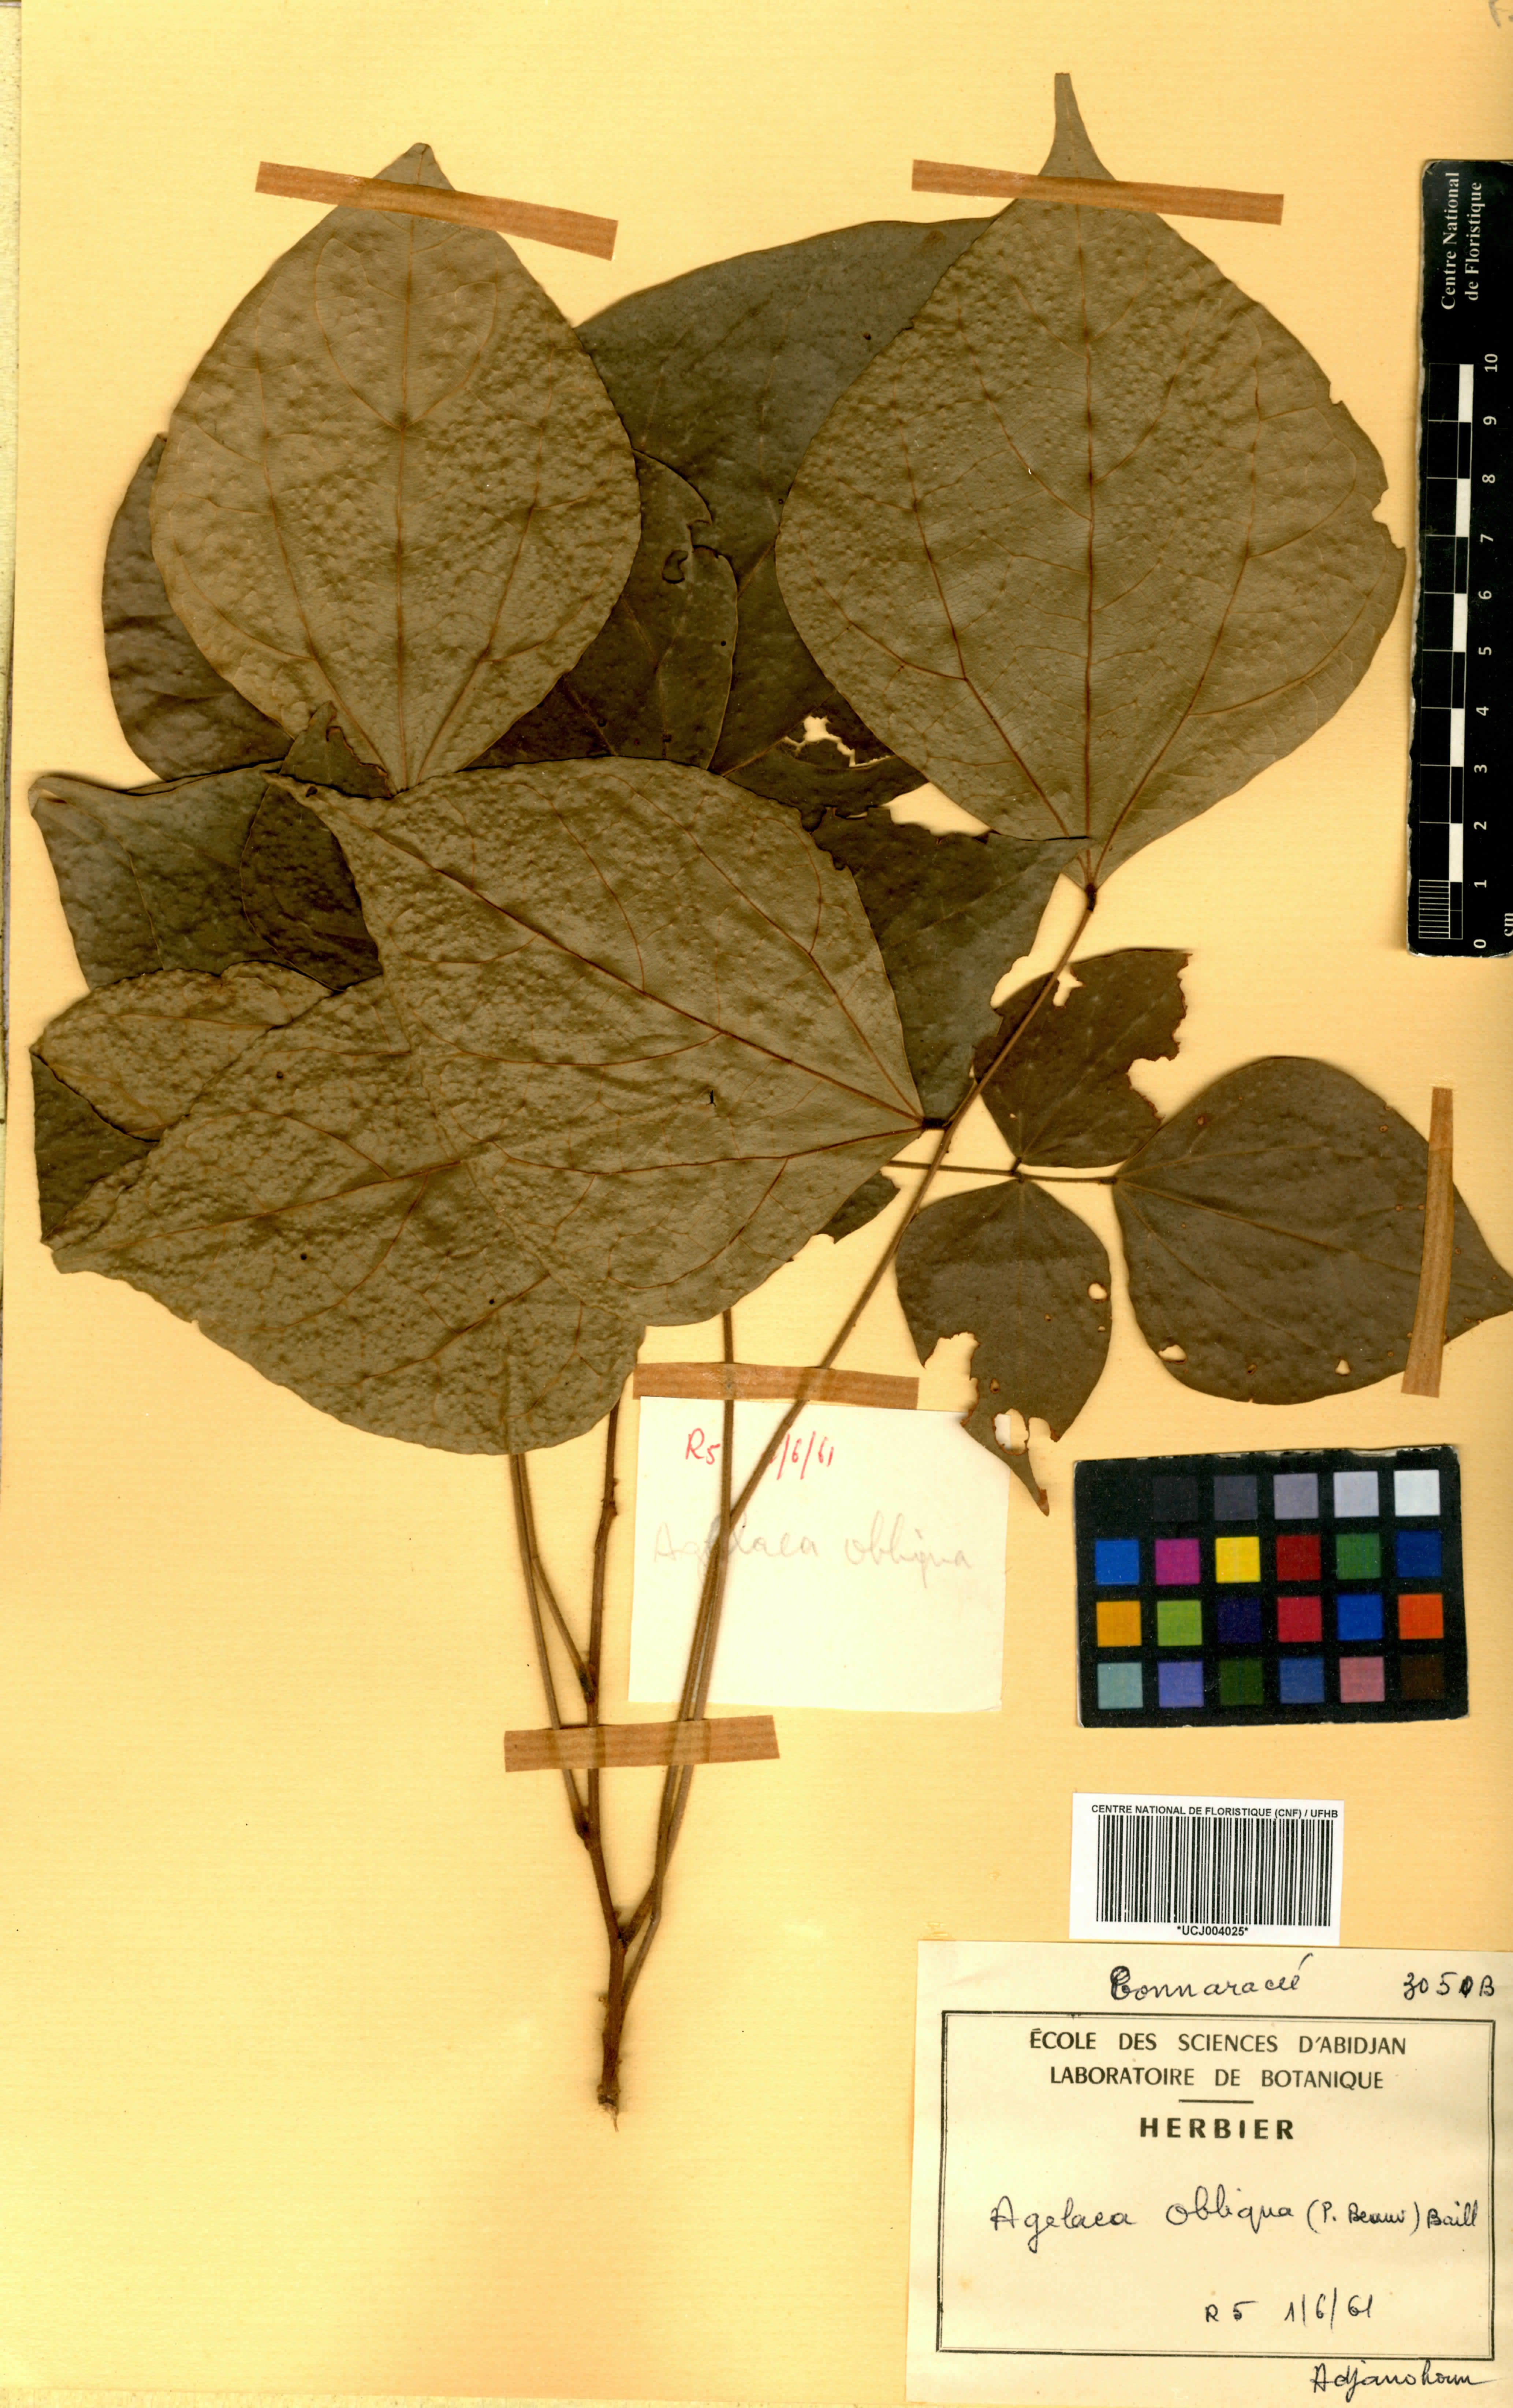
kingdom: Plantae
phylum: Tracheophyta
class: Magnoliopsida
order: Oxalidales
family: Connaraceae
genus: Agelaea
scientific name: Agelaea pentagyna
